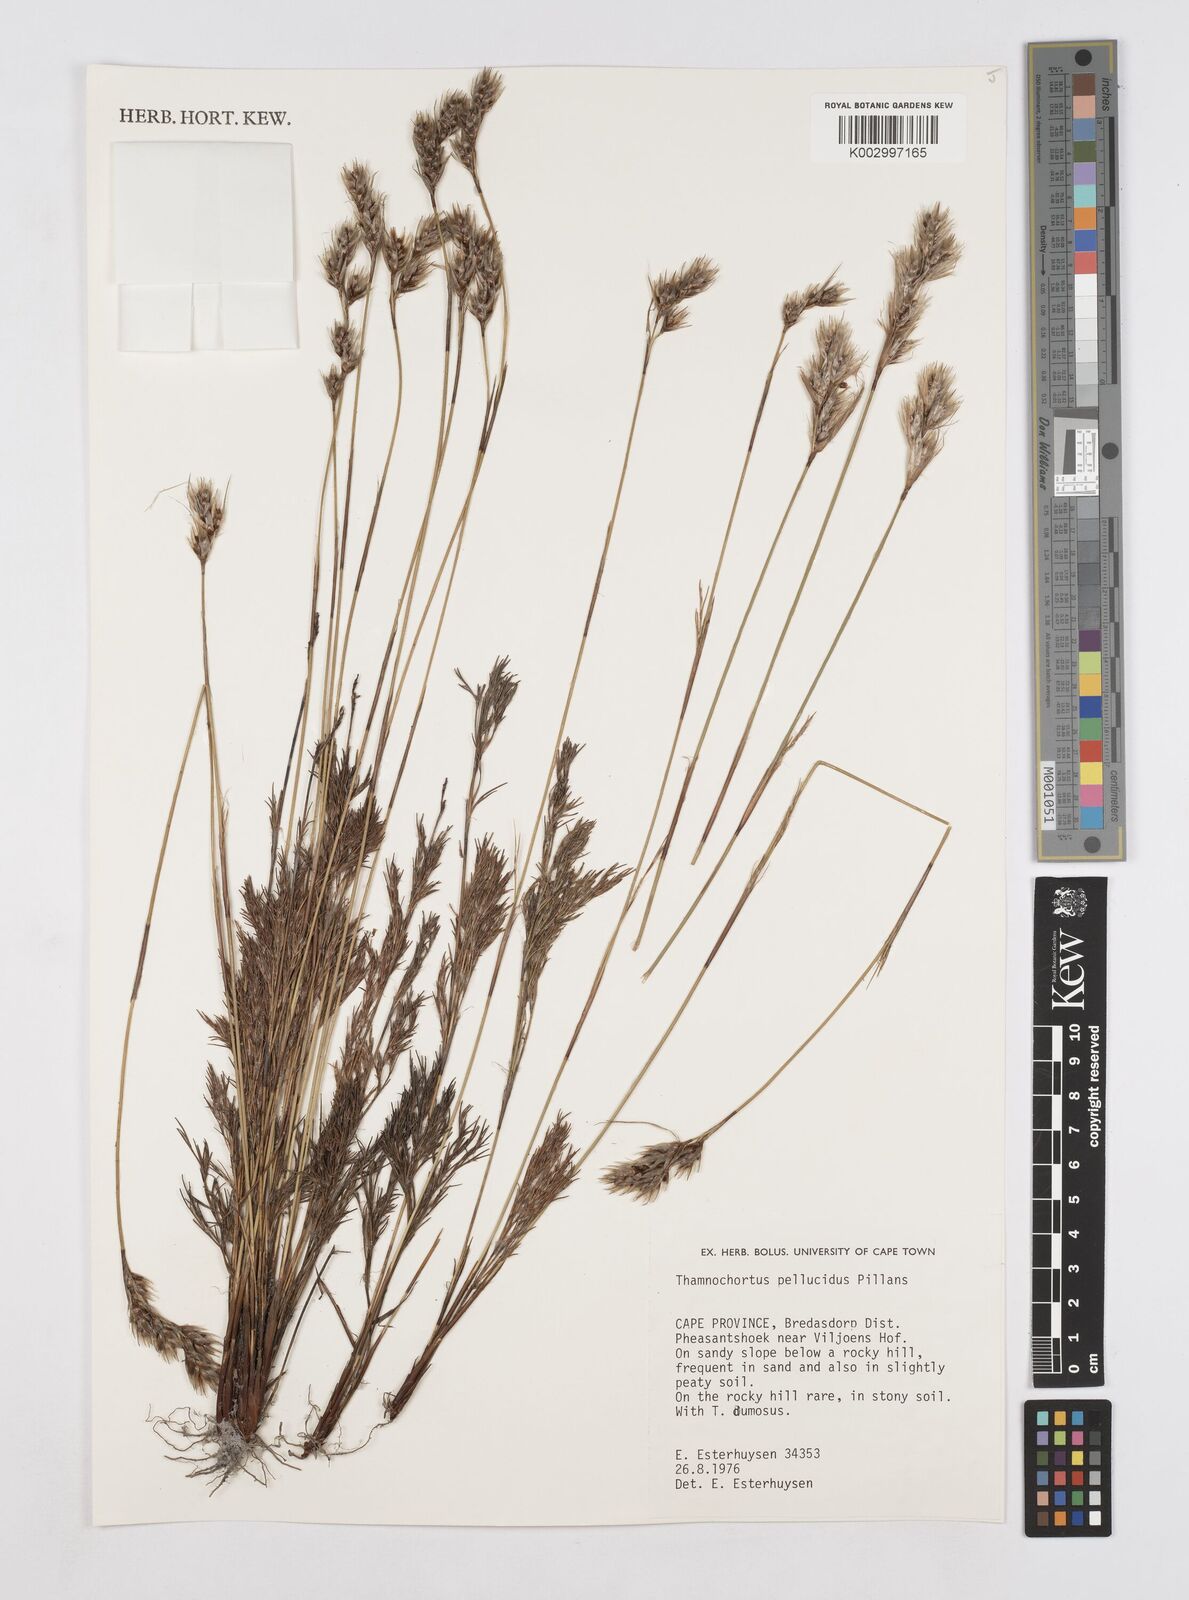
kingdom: Plantae
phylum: Tracheophyta
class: Liliopsida
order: Poales
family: Restionaceae
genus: Thamnochortus
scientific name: Thamnochortus pellucidus
